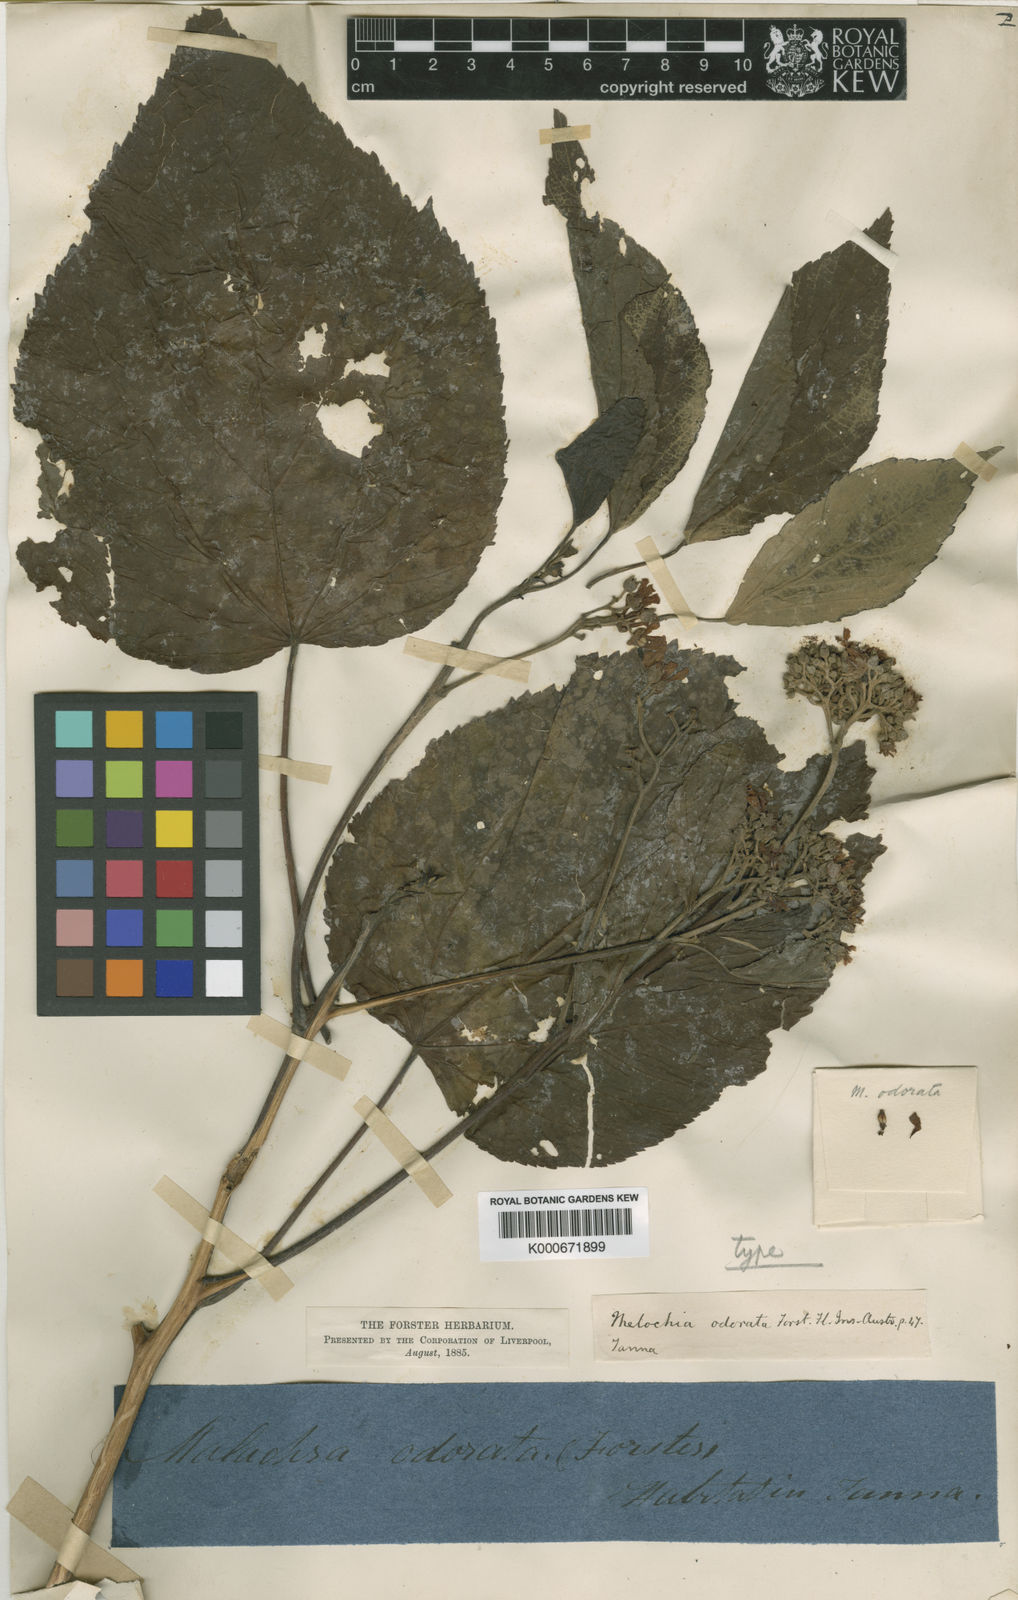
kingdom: Plantae
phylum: Tracheophyta
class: Magnoliopsida
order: Malvales
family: Malvaceae
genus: Melochia
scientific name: Melochia odorata
